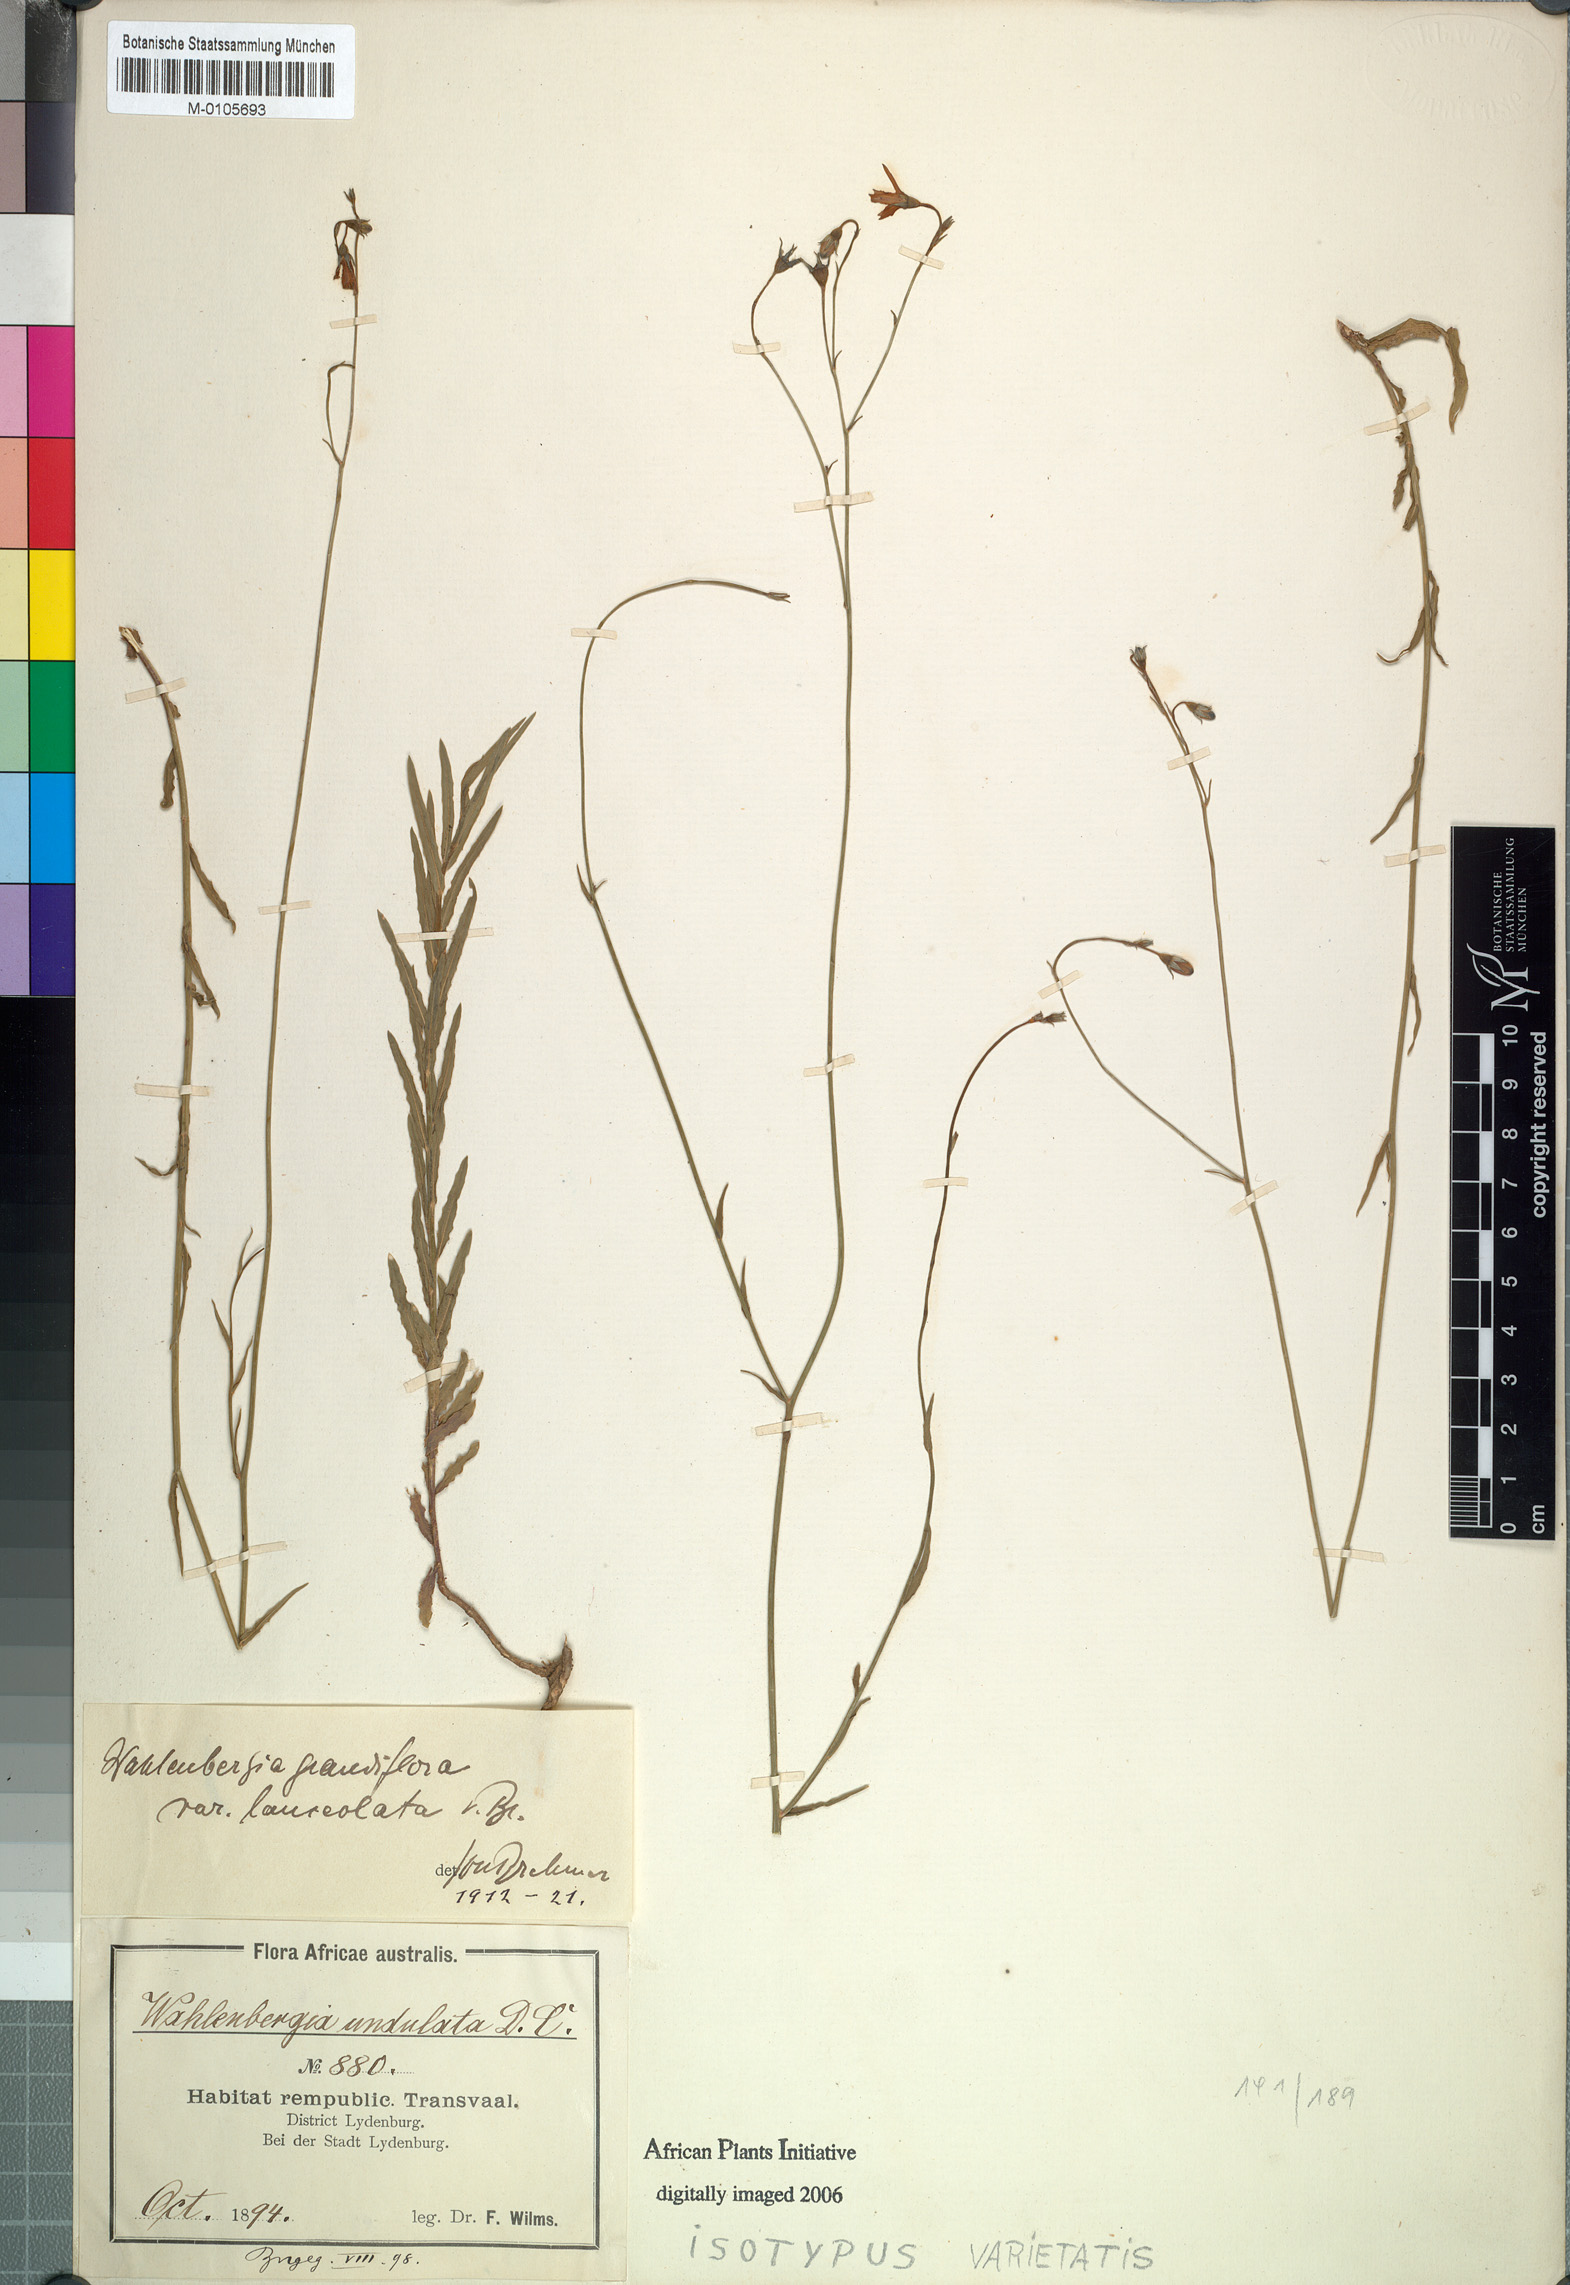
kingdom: Plantae
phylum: Tracheophyta
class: Magnoliopsida
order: Asterales
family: Campanulaceae
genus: Wahlenbergia
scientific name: Wahlenbergia undulata
